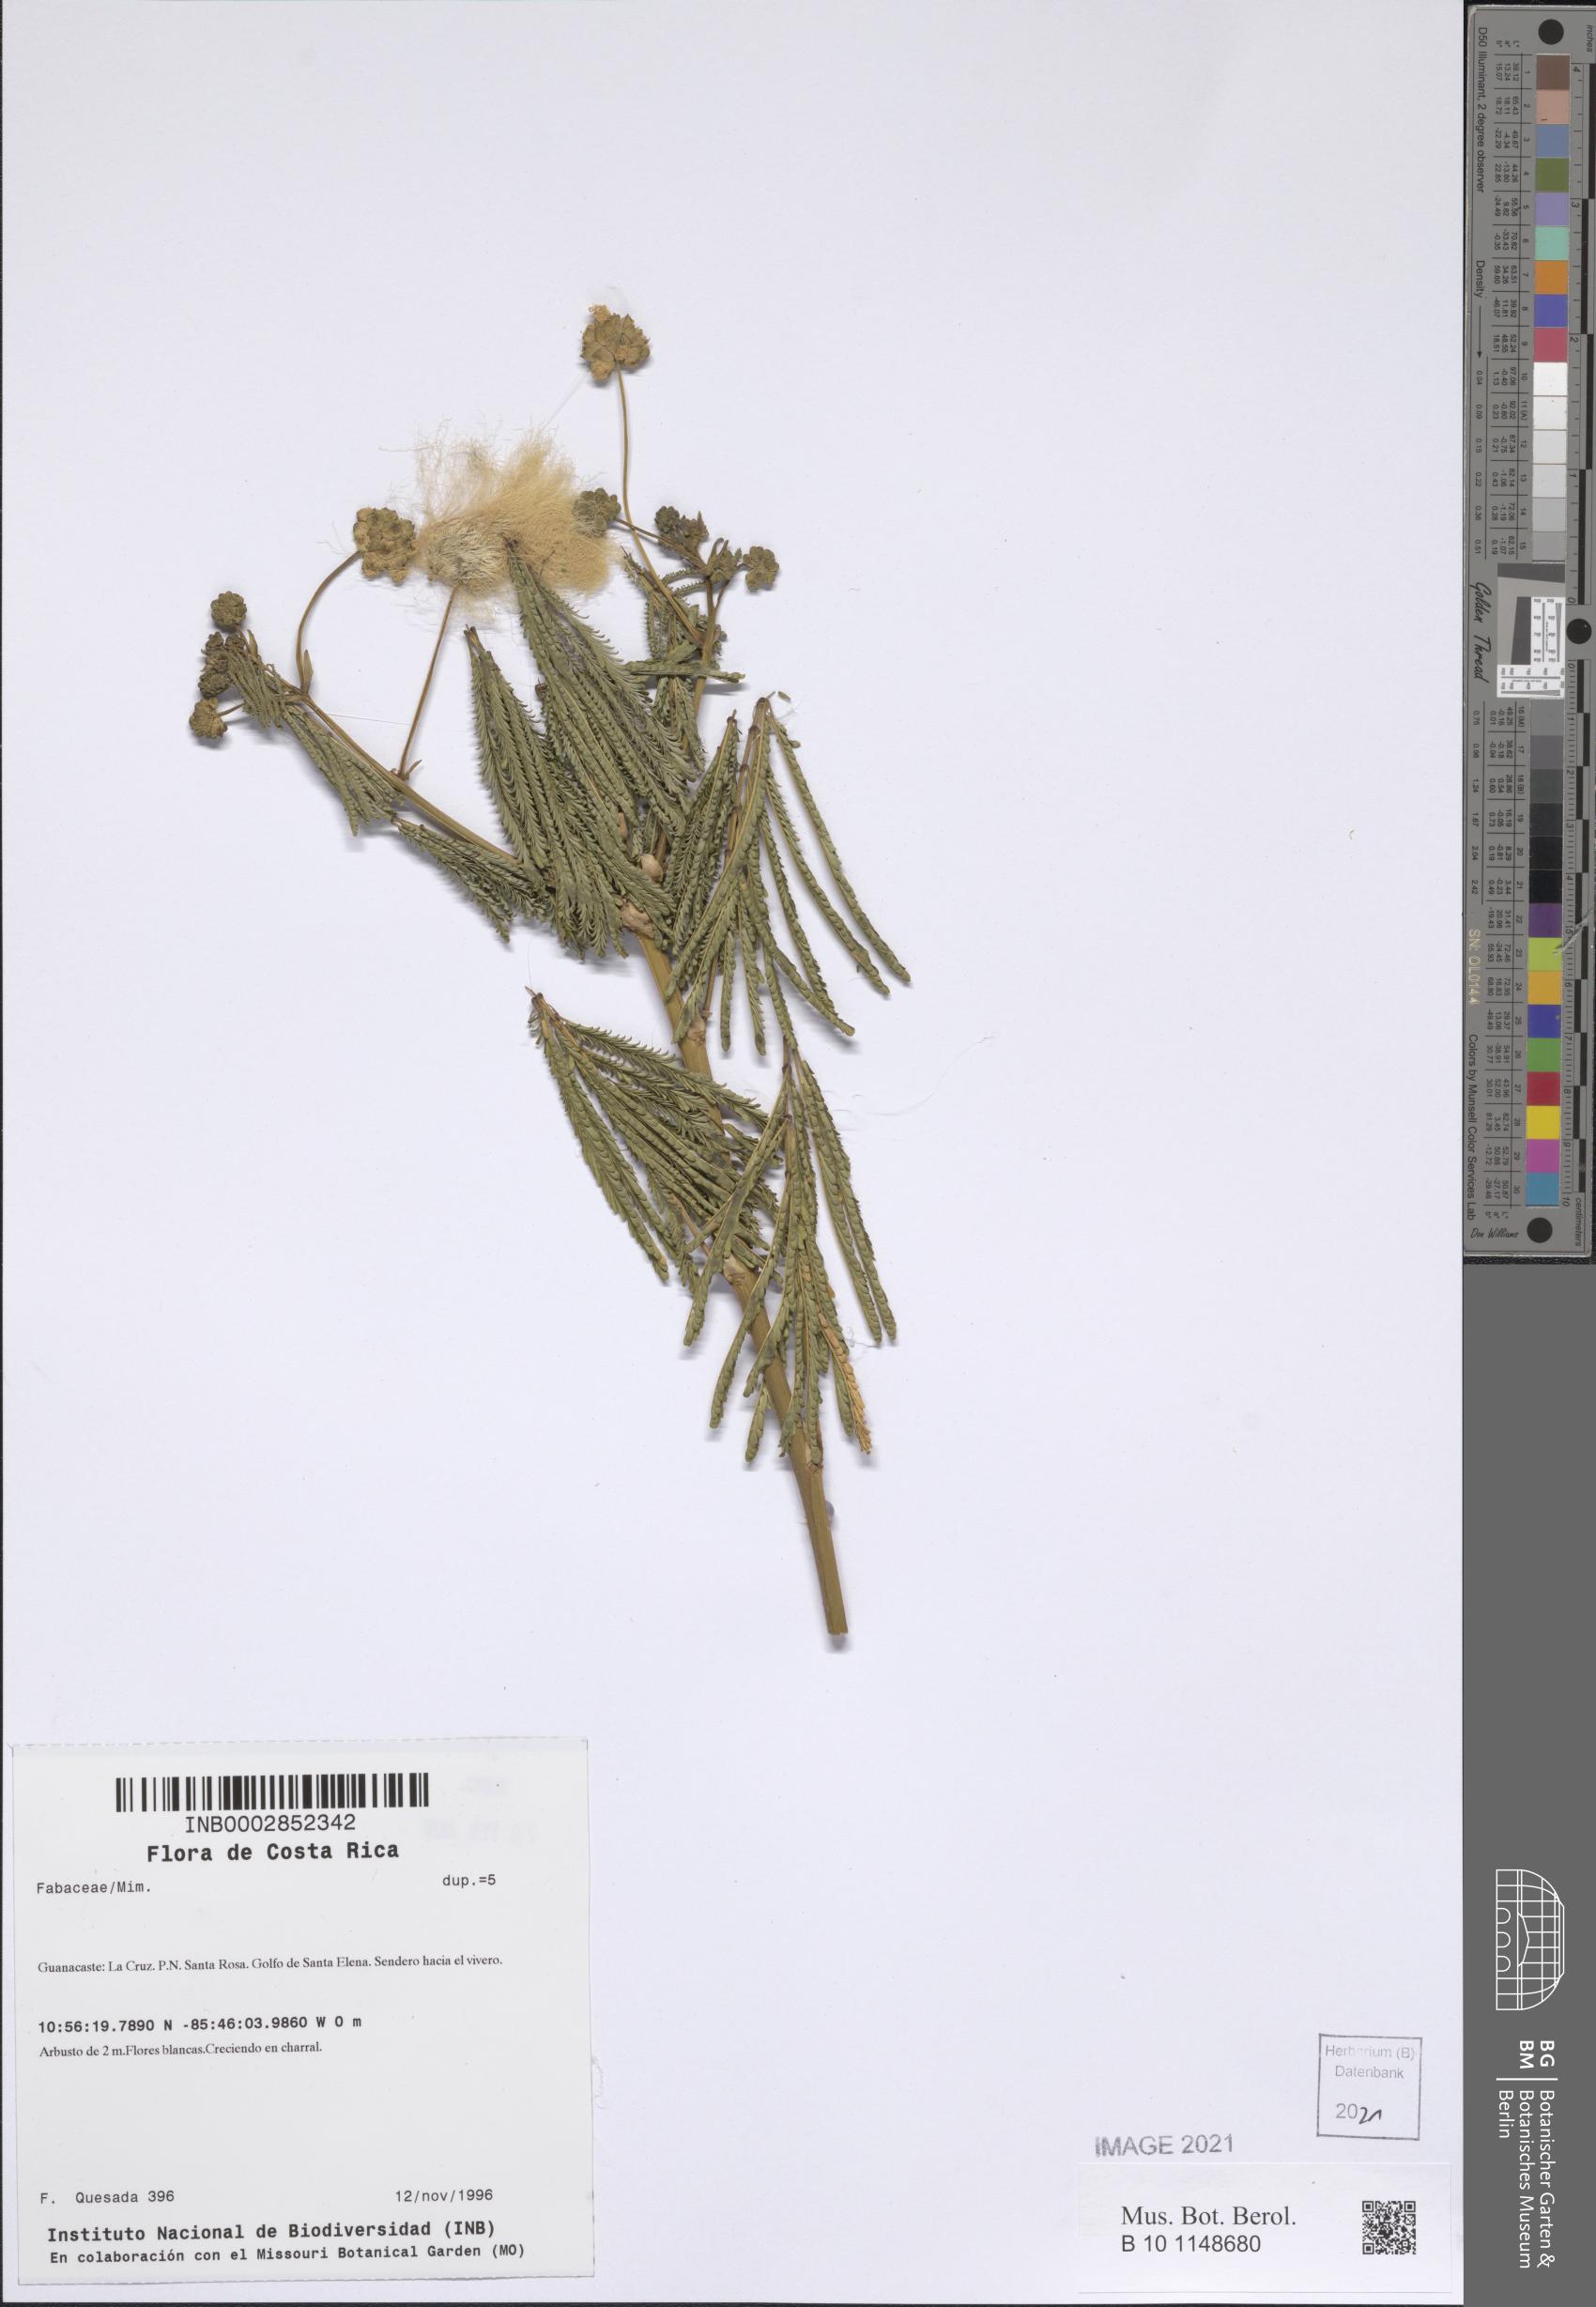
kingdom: Plantae
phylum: Tracheophyta
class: Magnoliopsida
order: Fabales
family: Fabaceae
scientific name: Fabaceae
